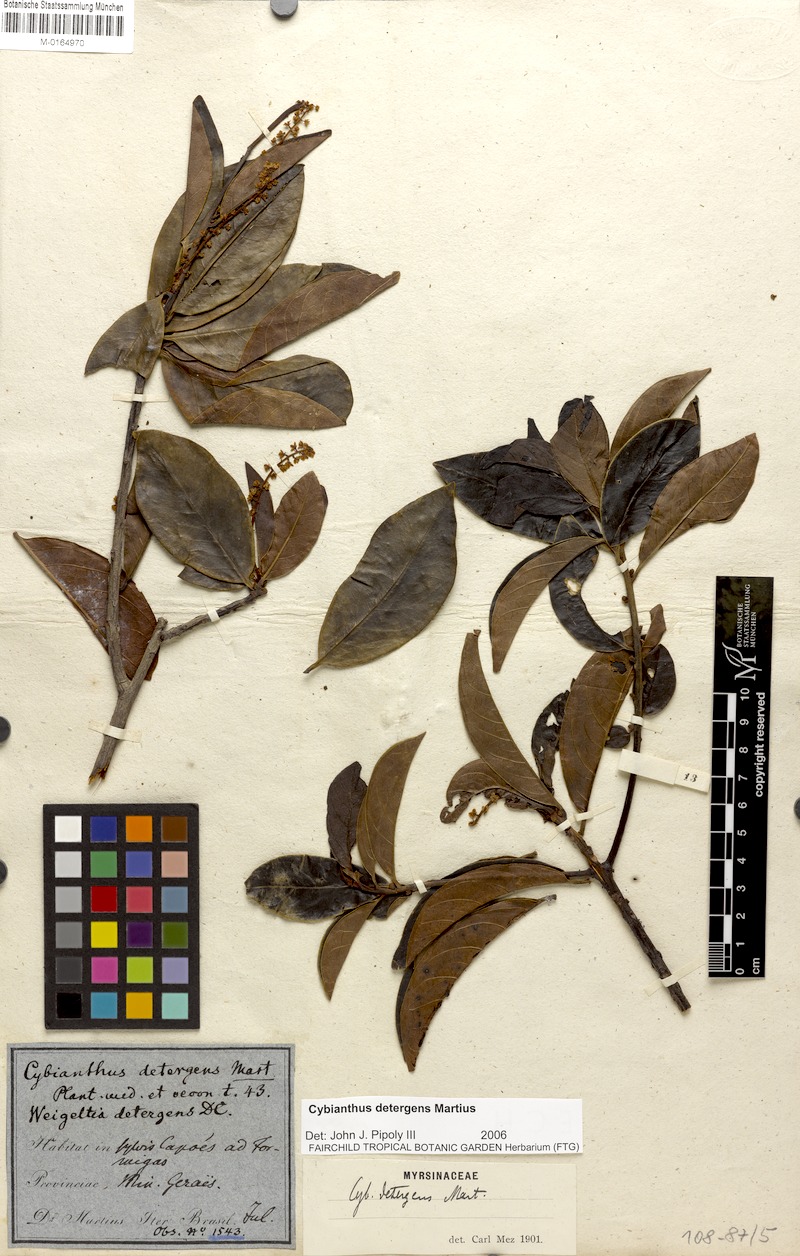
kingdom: Plantae
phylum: Tracheophyta
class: Magnoliopsida
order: Ericales
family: Primulaceae
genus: Cybianthus
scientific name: Cybianthus detergens
